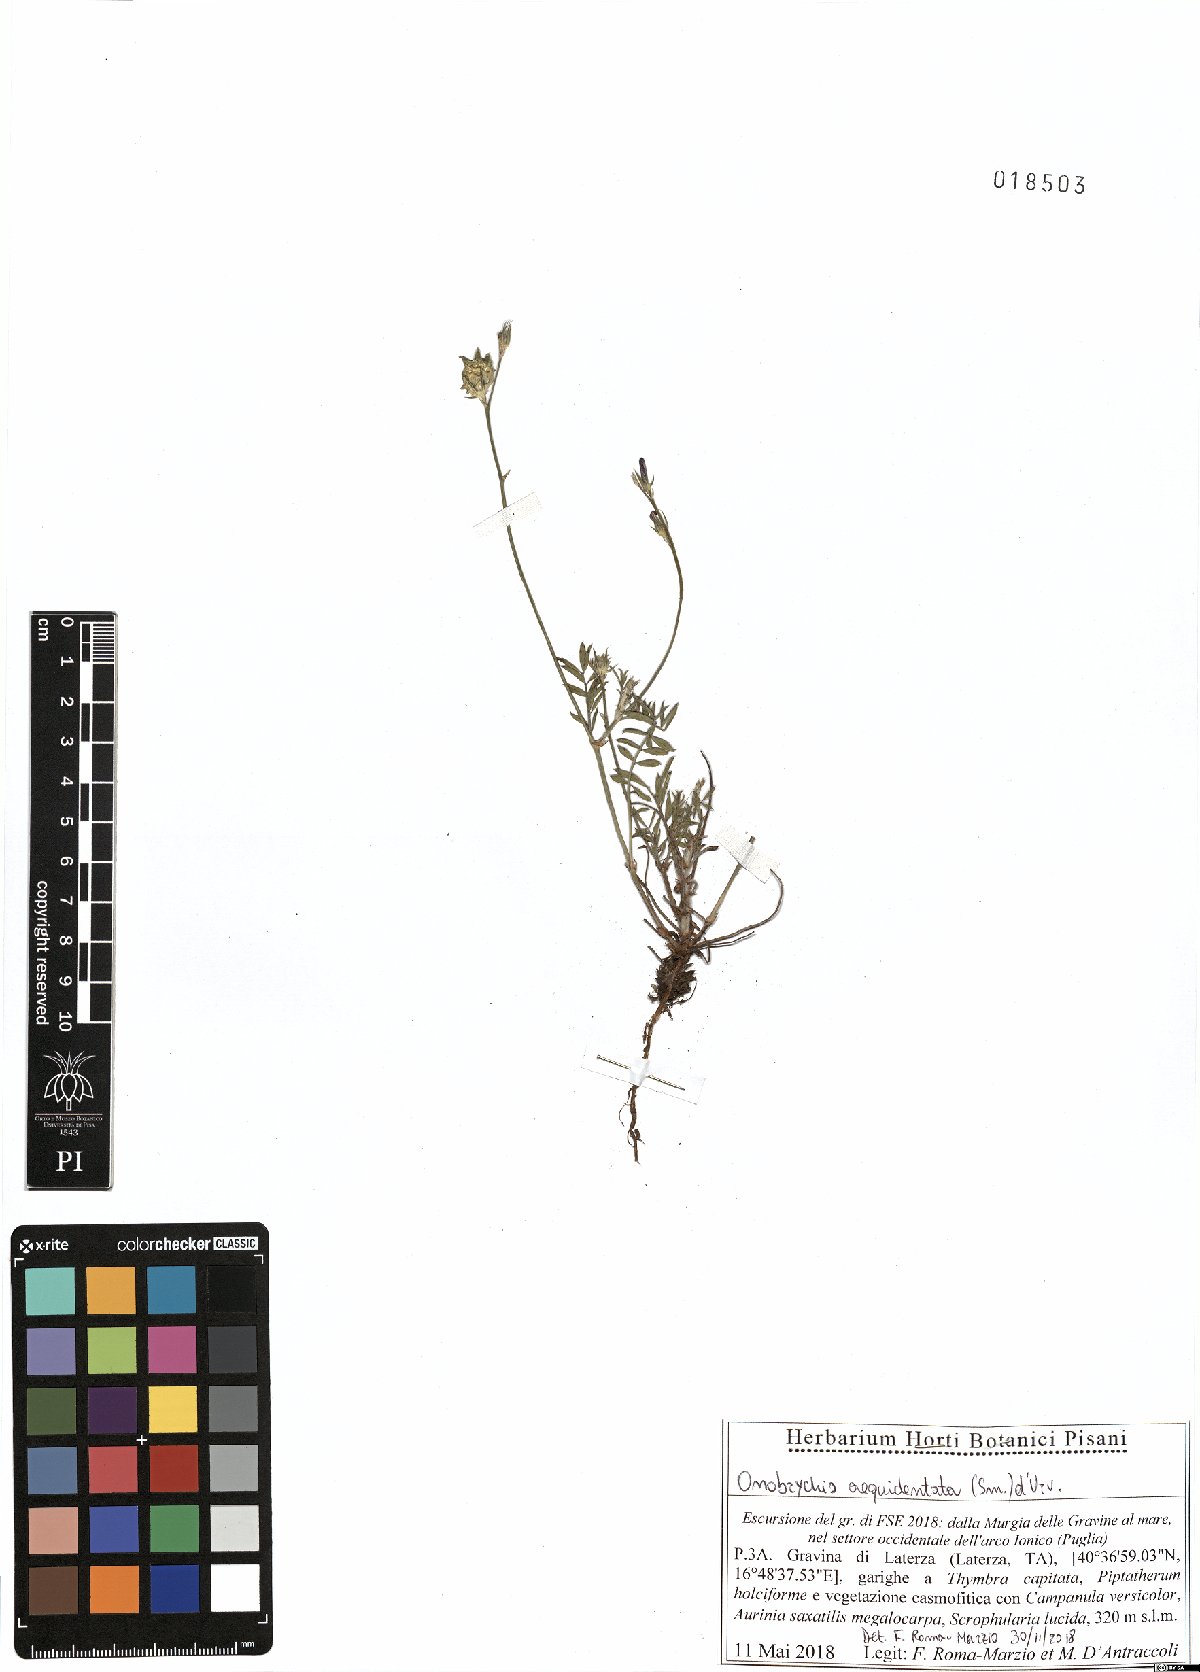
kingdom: Plantae
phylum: Tracheophyta
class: Magnoliopsida
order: Fabales
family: Fabaceae
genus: Onobrychis
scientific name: Onobrychis aequidentata
